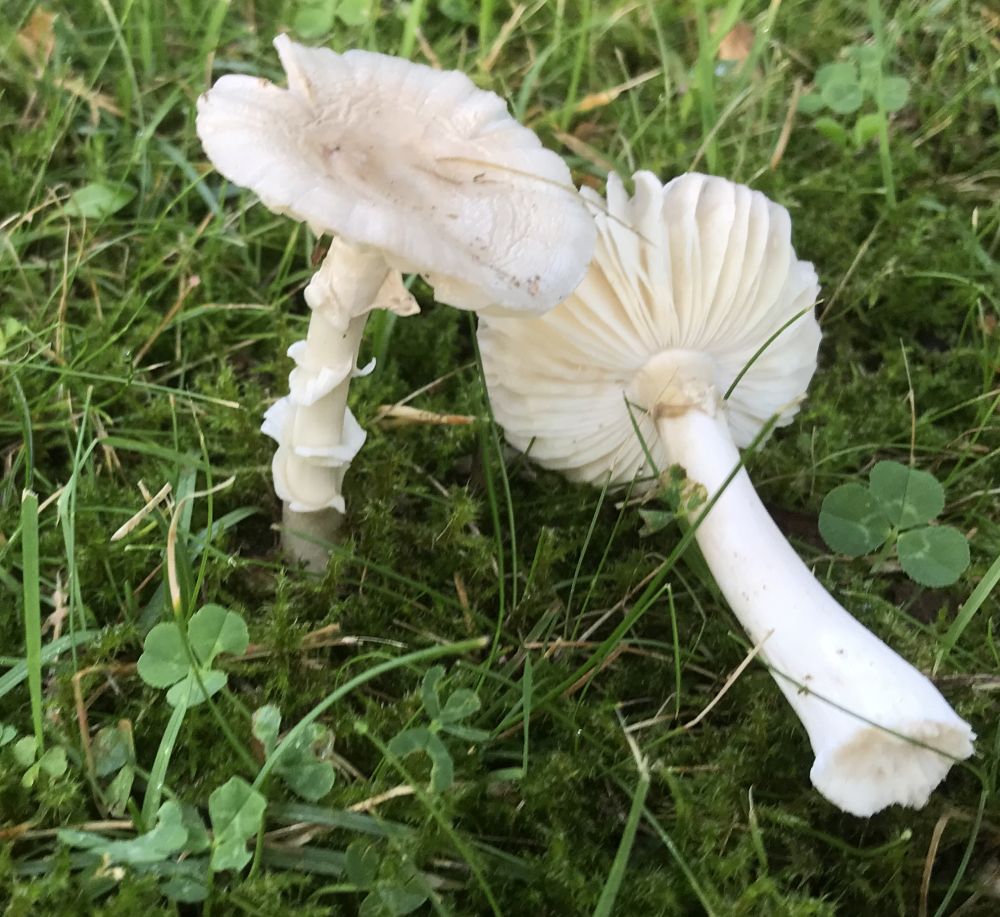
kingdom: Fungi
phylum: Basidiomycota
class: Agaricomycetes
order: Agaricales
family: Amanitaceae
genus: Amanita
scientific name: Amanita
